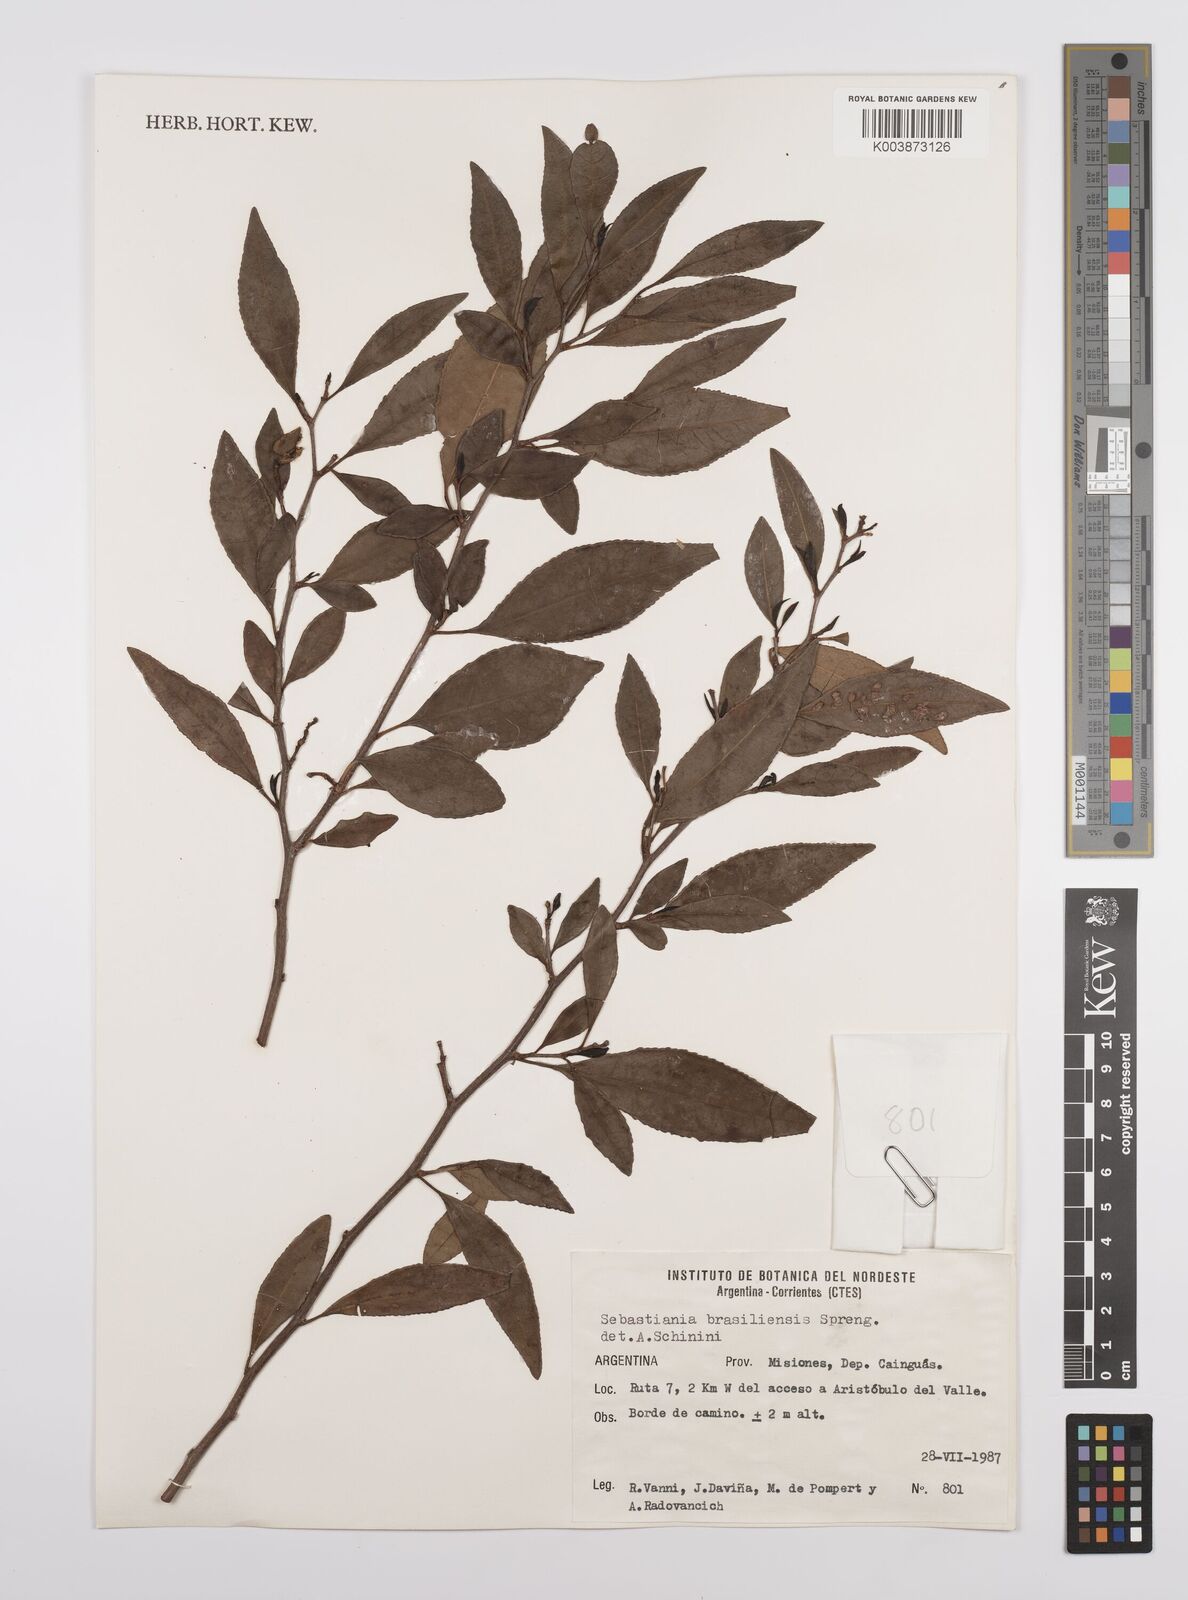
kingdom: Plantae
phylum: Tracheophyta
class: Magnoliopsida
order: Malpighiales
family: Euphorbiaceae
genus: Sebastiania
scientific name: Sebastiania brasiliensis
